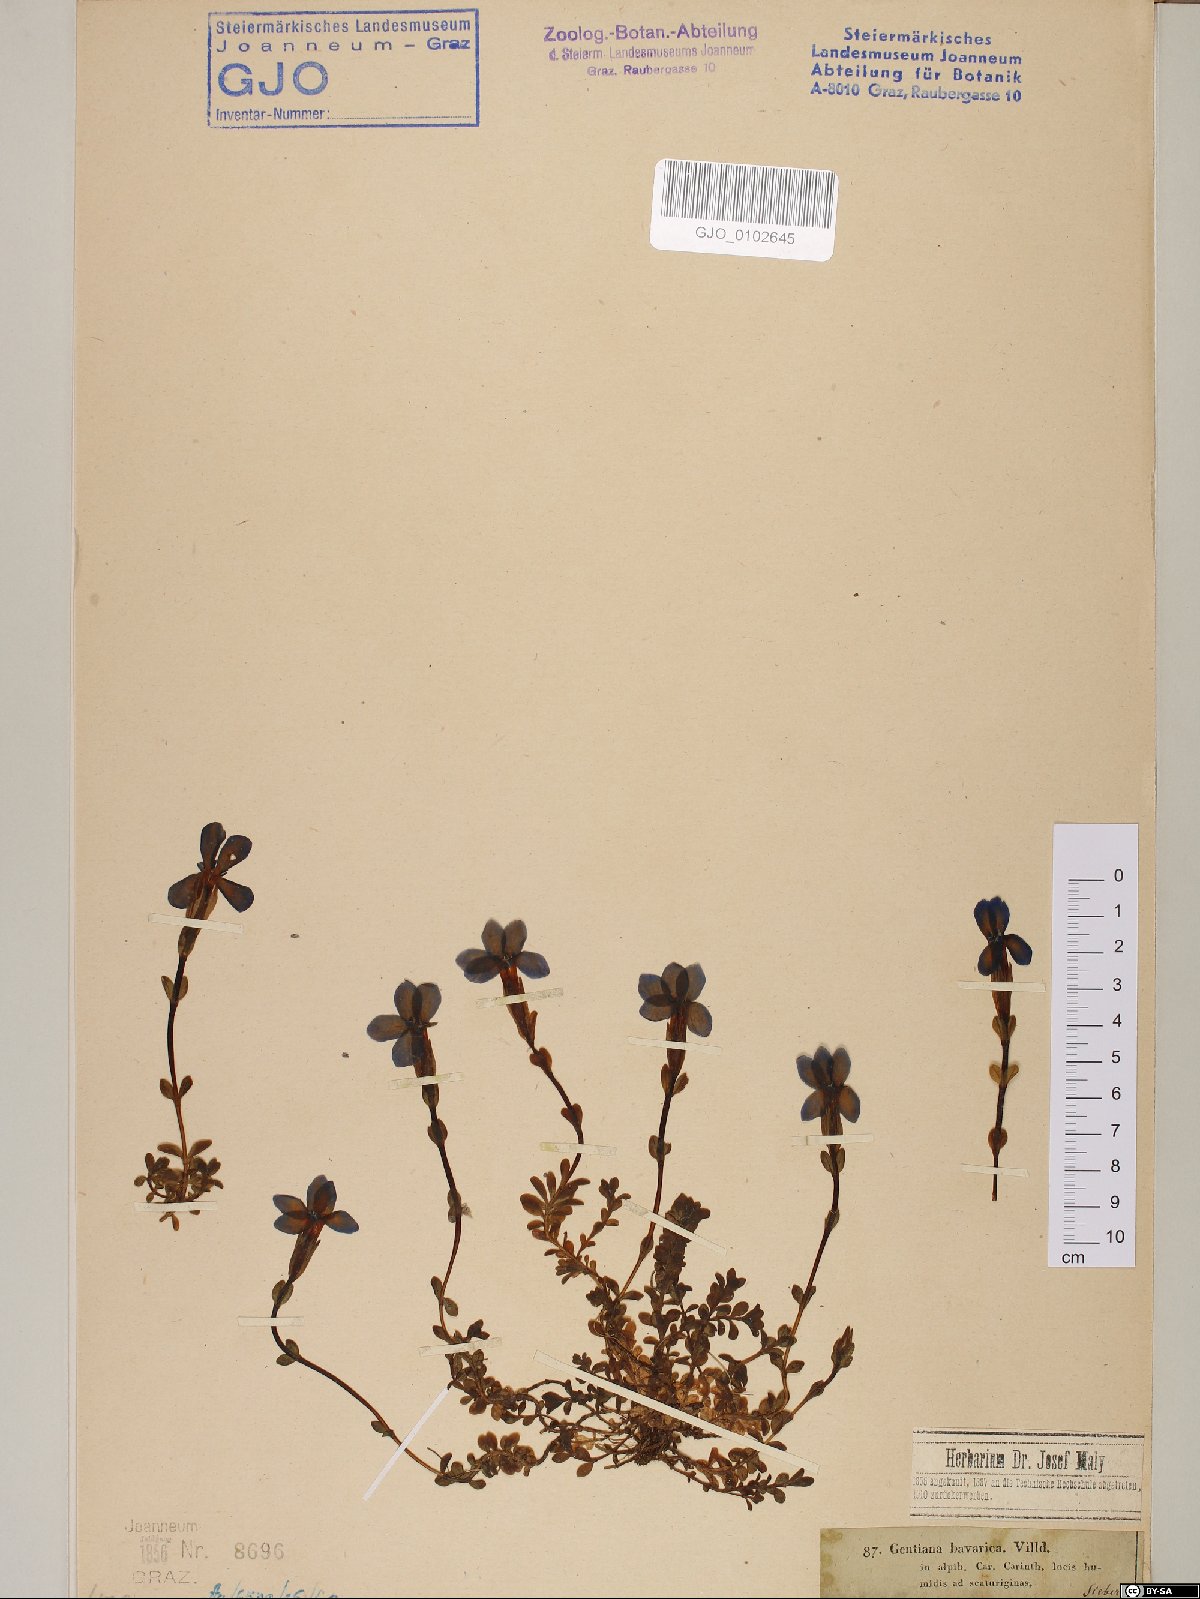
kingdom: Plantae
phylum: Tracheophyta
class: Magnoliopsida
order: Gentianales
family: Gentianaceae
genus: Gentiana
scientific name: Gentiana bavarica
